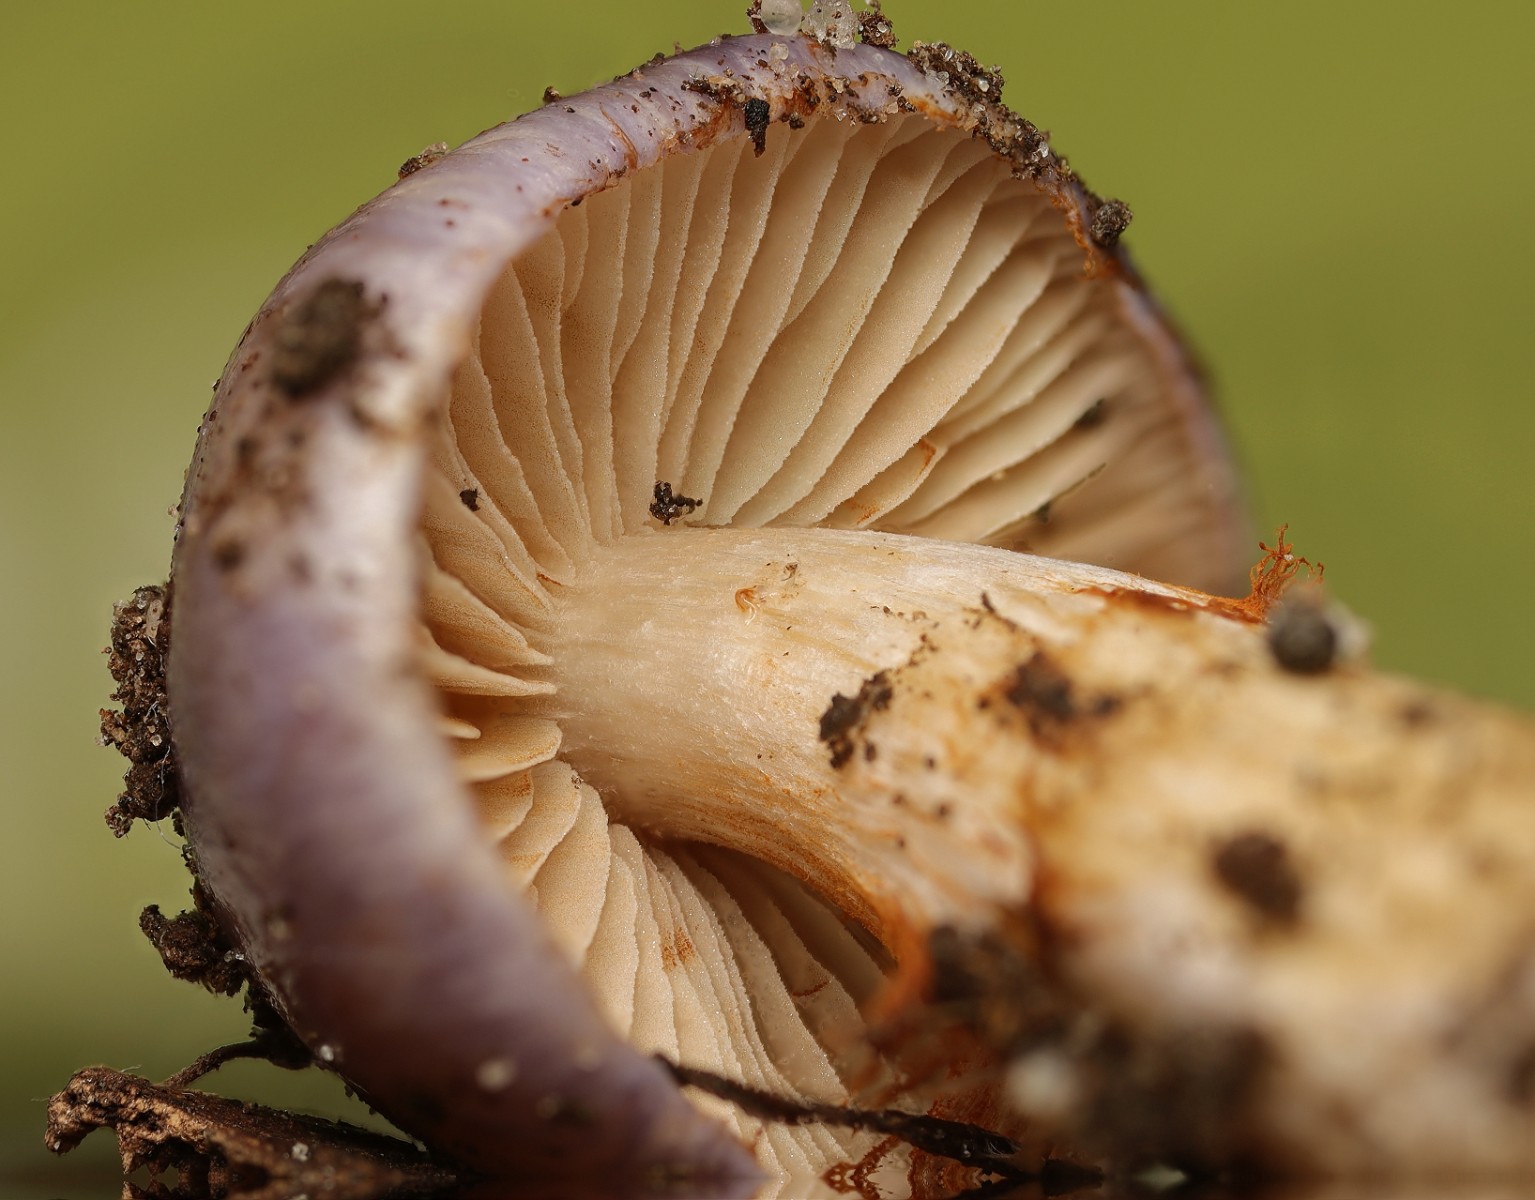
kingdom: Fungi
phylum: Basidiomycota
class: Agaricomycetes
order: Agaricales
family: Cortinariaceae
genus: Thaxterogaster
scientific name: Thaxterogaster croceocoeruleus
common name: blågullig slørhat
